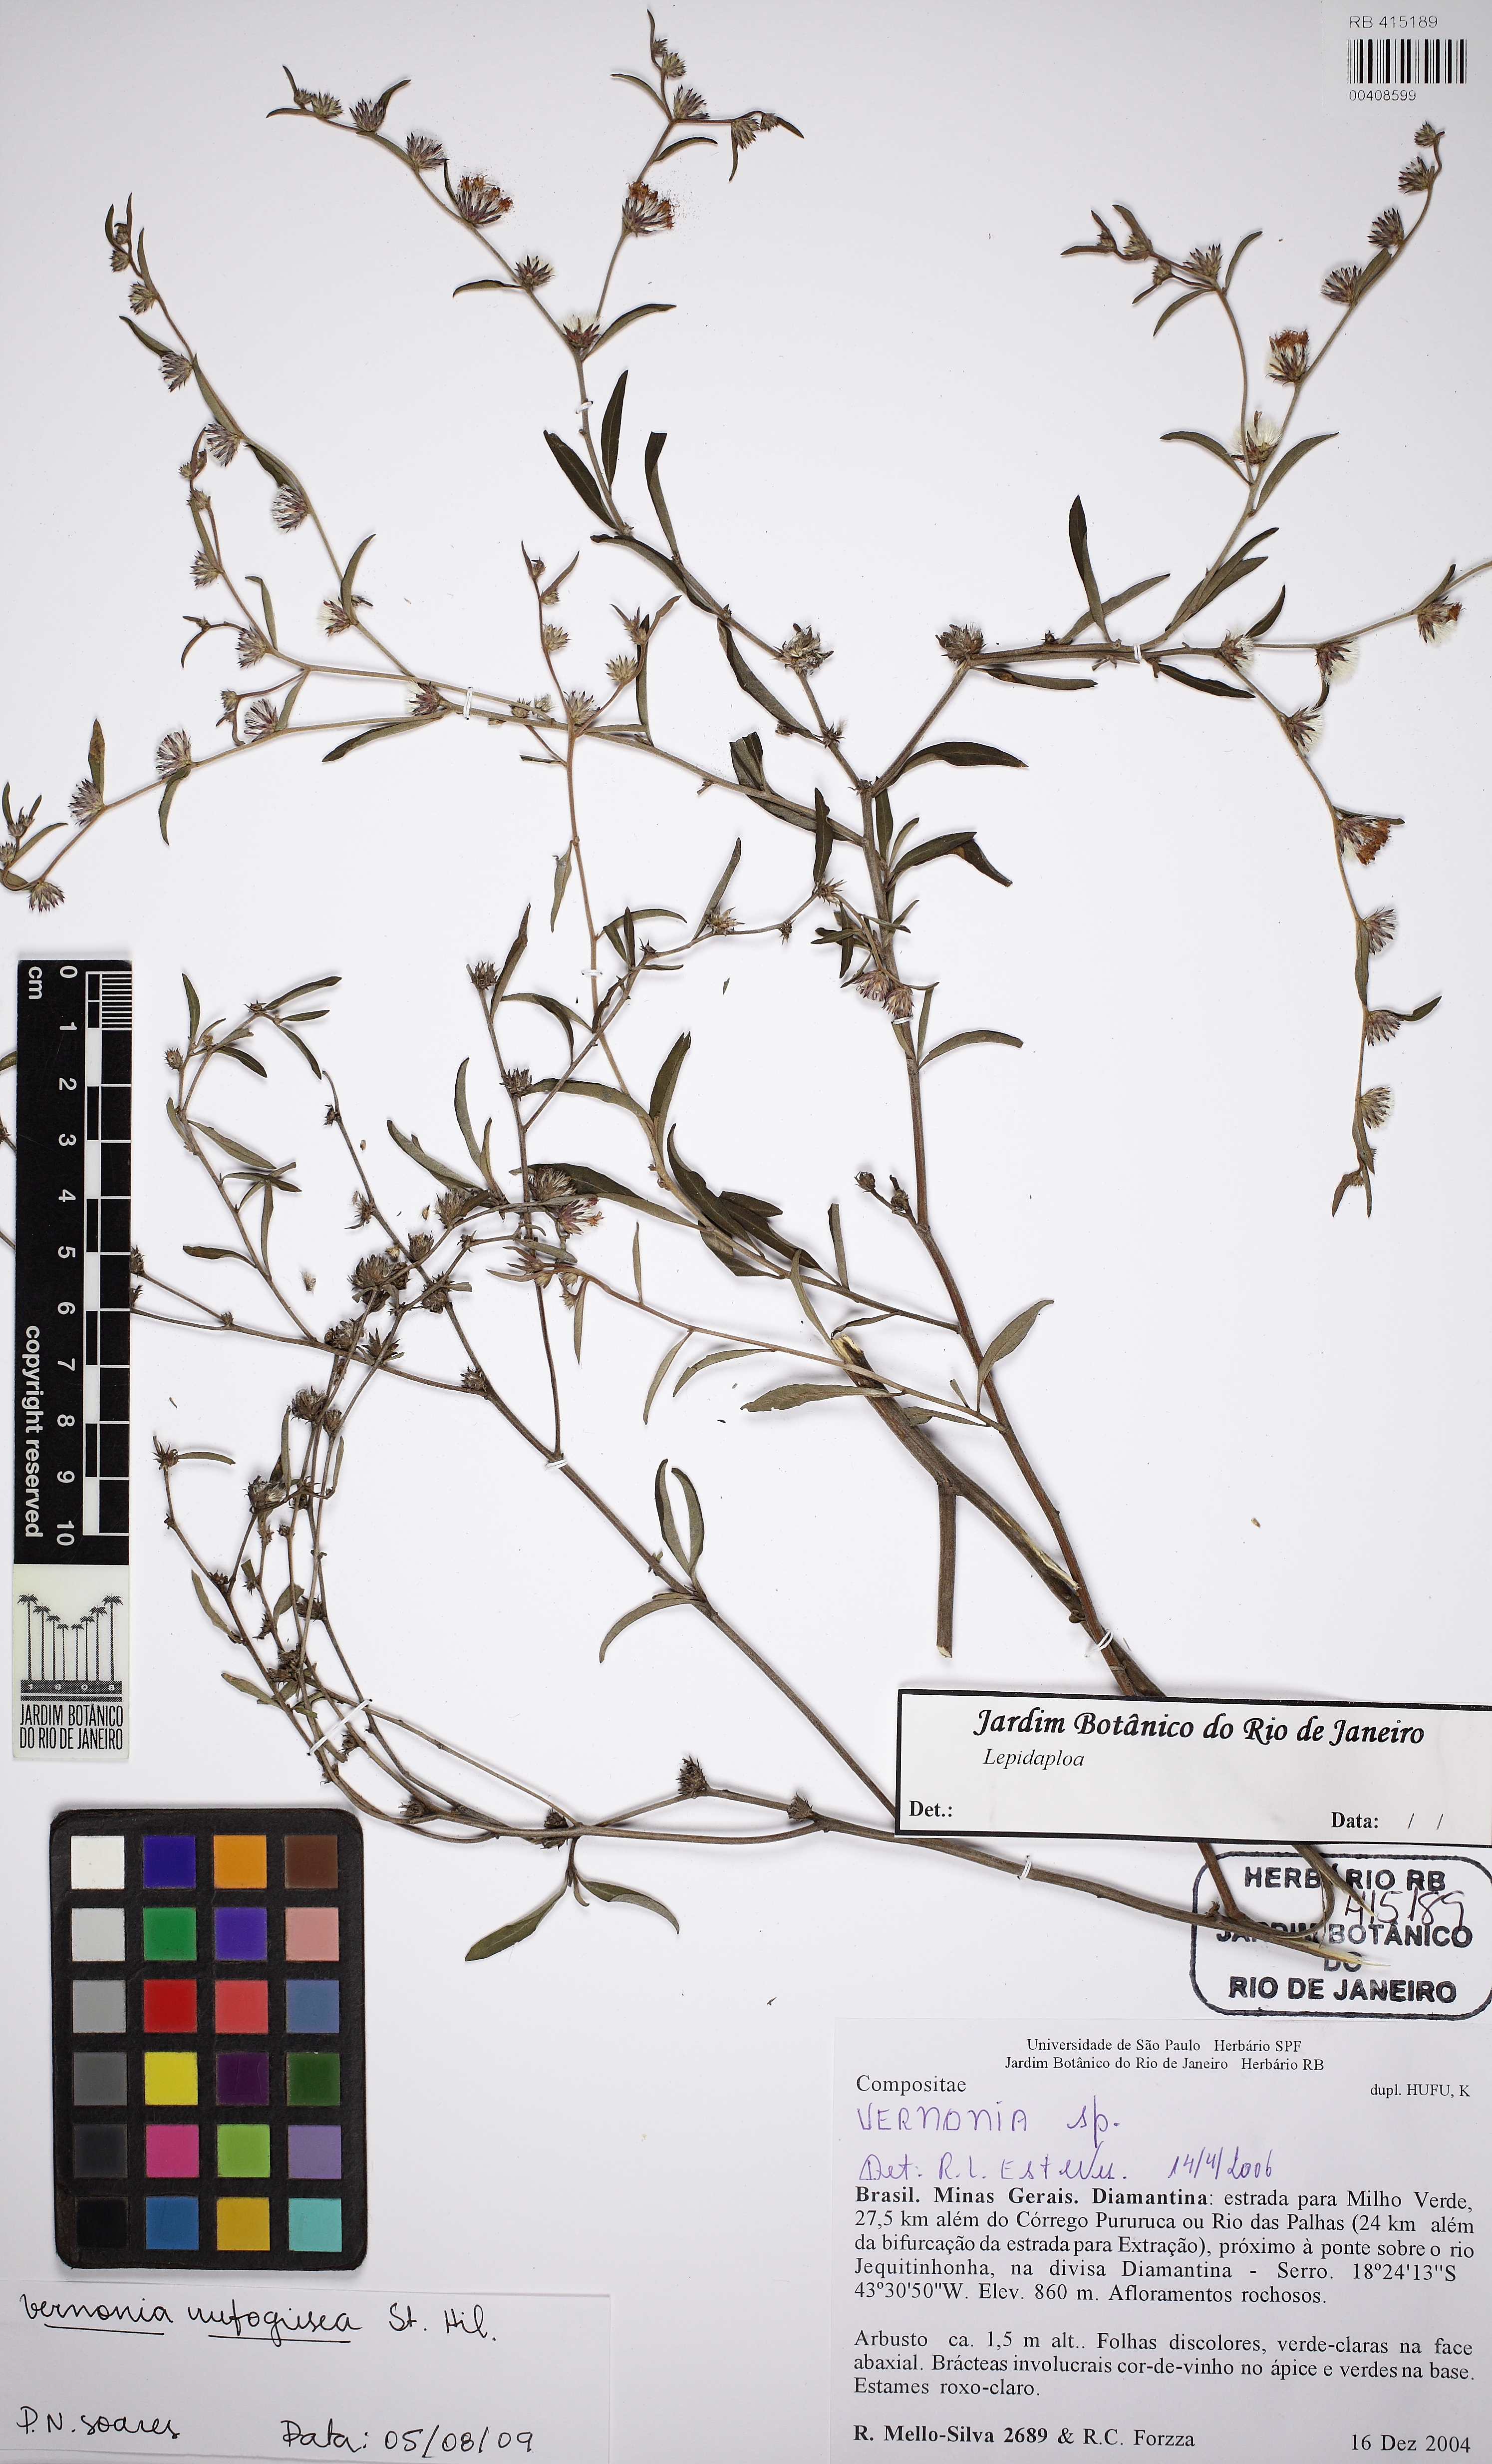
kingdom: Plantae
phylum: Tracheophyta
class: Magnoliopsida
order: Asterales
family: Asteraceae
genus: Lepidaploa
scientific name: Lepidaploa rufogrisea
